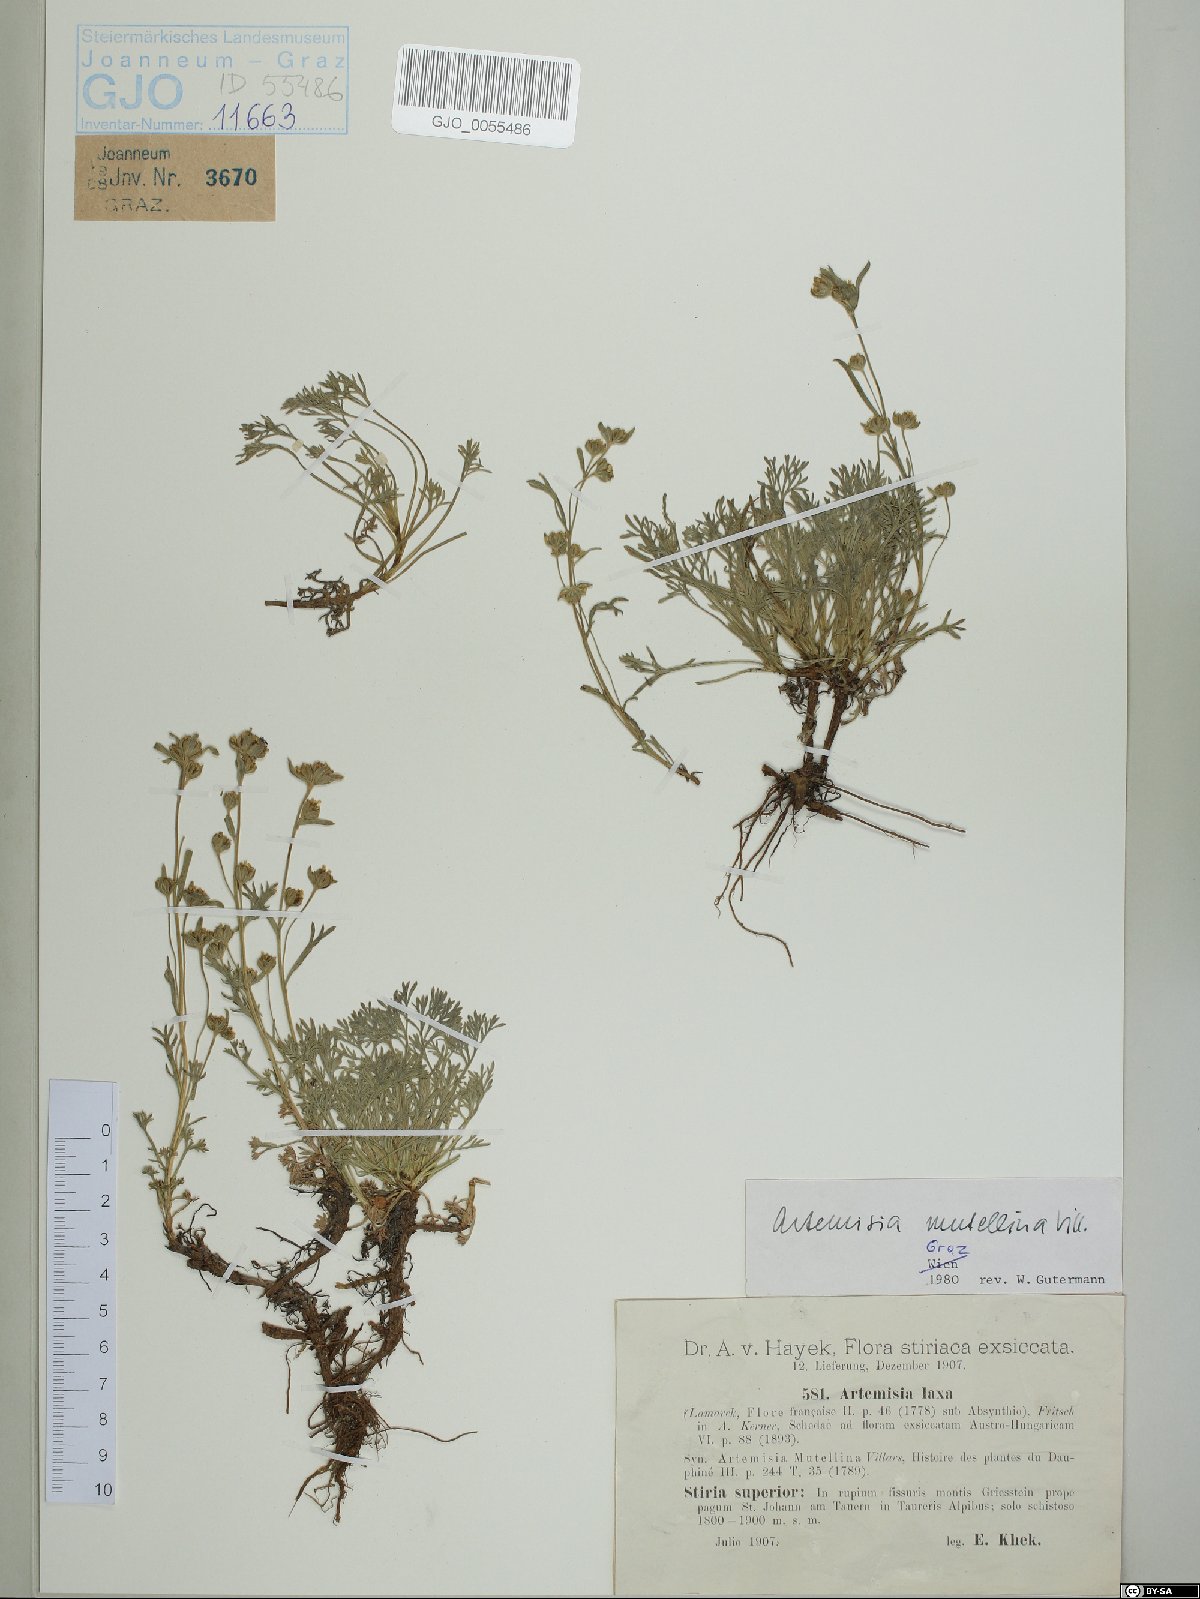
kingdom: Plantae
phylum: Tracheophyta
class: Magnoliopsida
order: Asterales
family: Asteraceae
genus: Artemisia
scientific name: Artemisia mutellina
